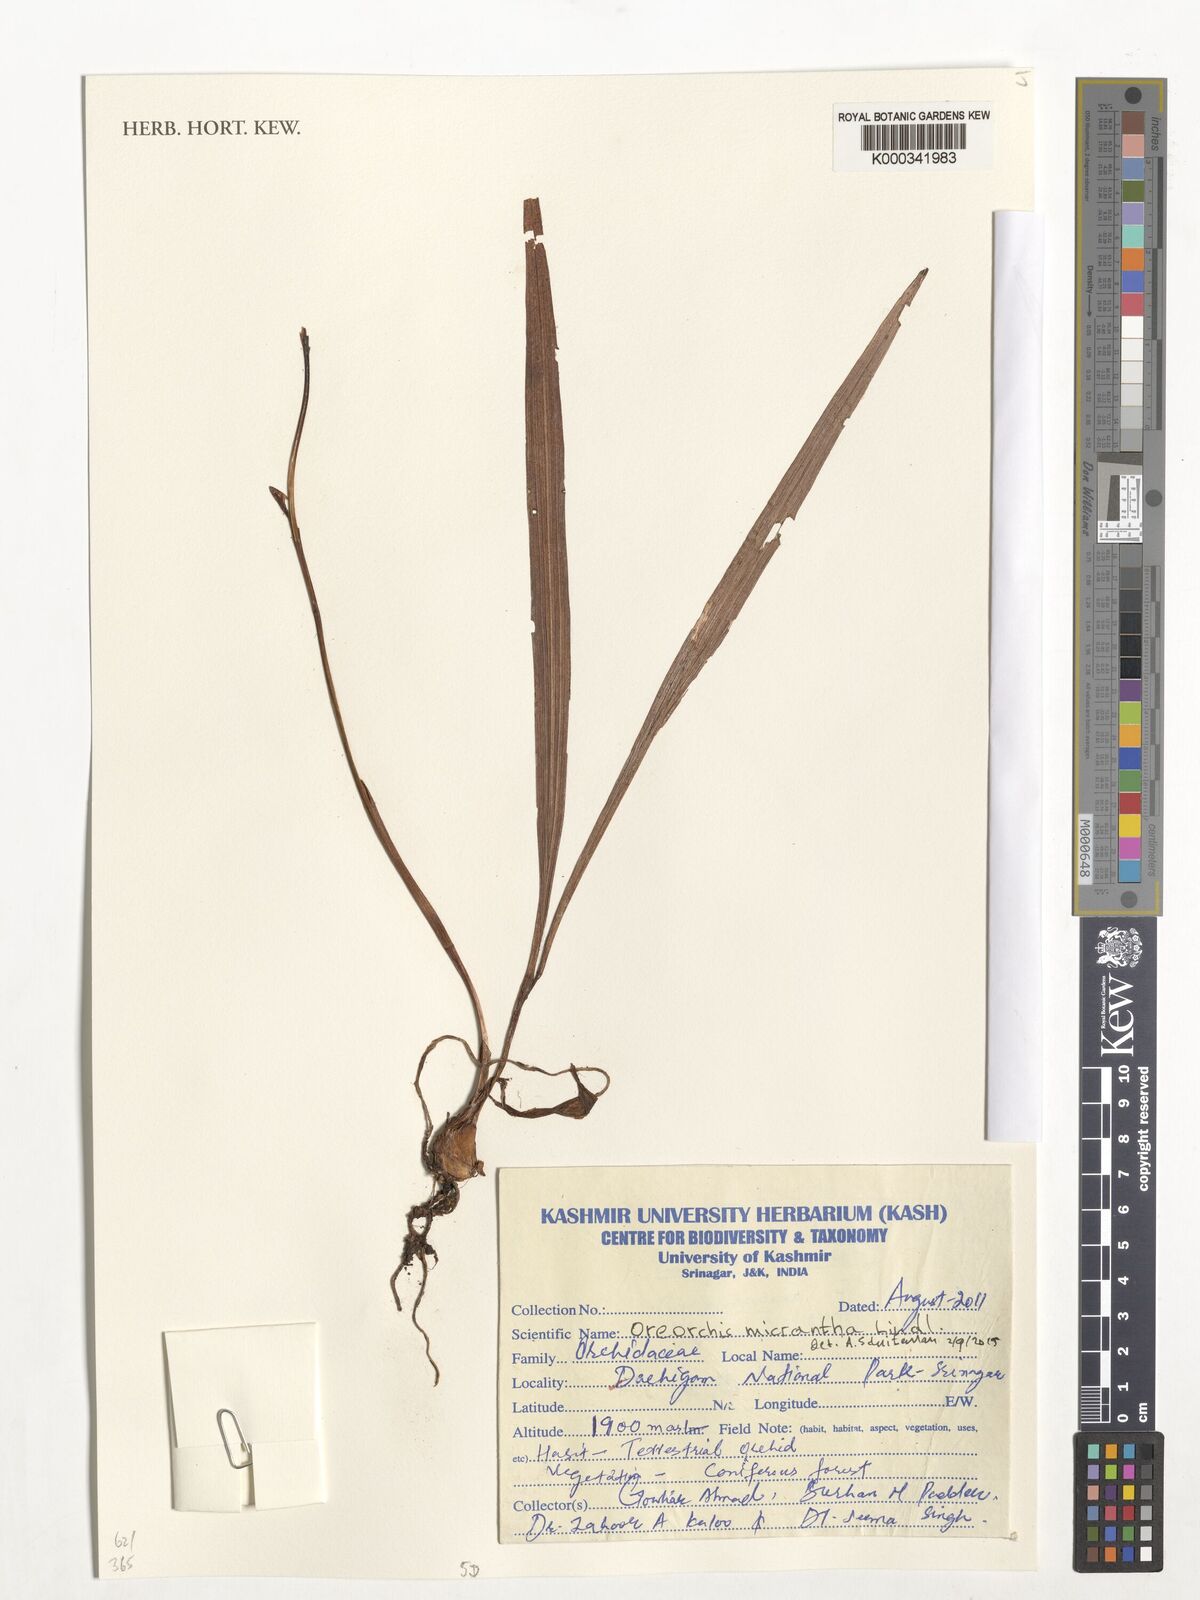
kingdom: Plantae
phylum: Tracheophyta
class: Liliopsida
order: Asparagales
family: Orchidaceae
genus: Oreorchis
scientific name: Oreorchis micrantha
